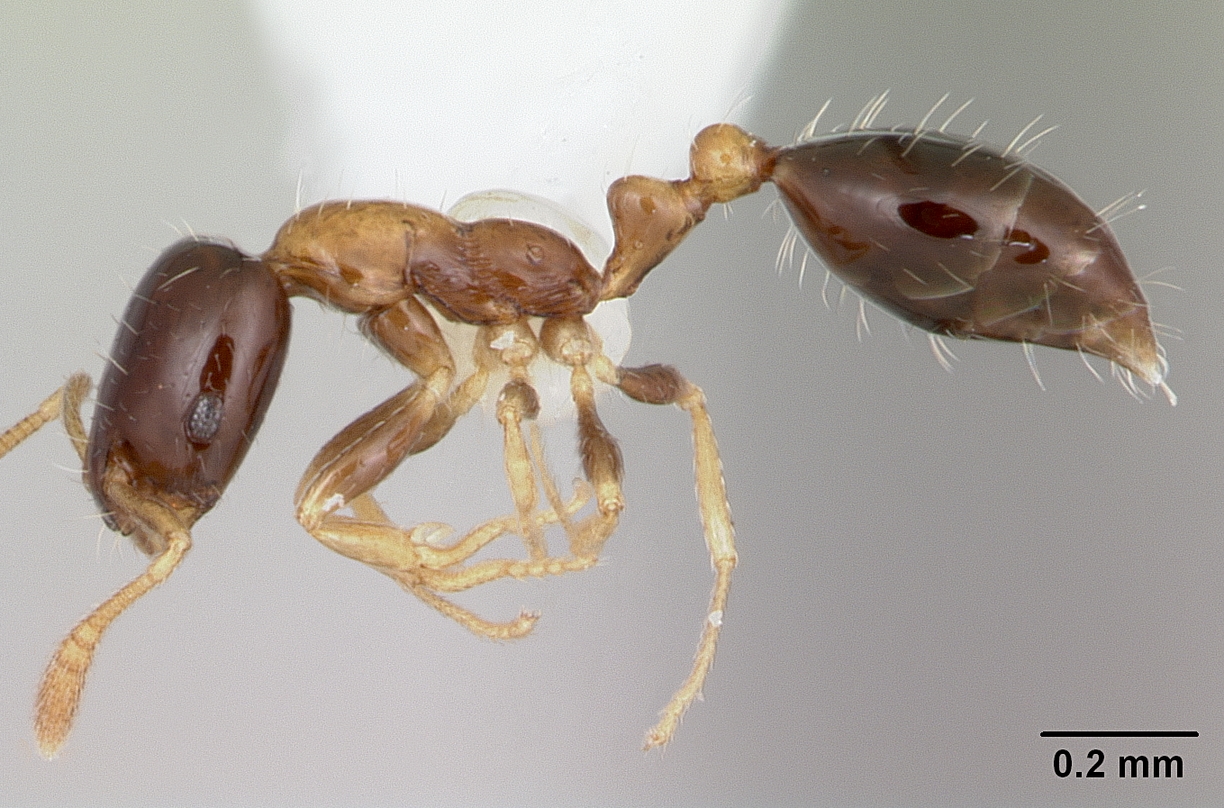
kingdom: Animalia
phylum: Arthropoda
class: Insecta
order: Hymenoptera
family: Formicidae
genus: Monomorium
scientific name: Monomorium floricola
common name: Bicolored trailing ant
